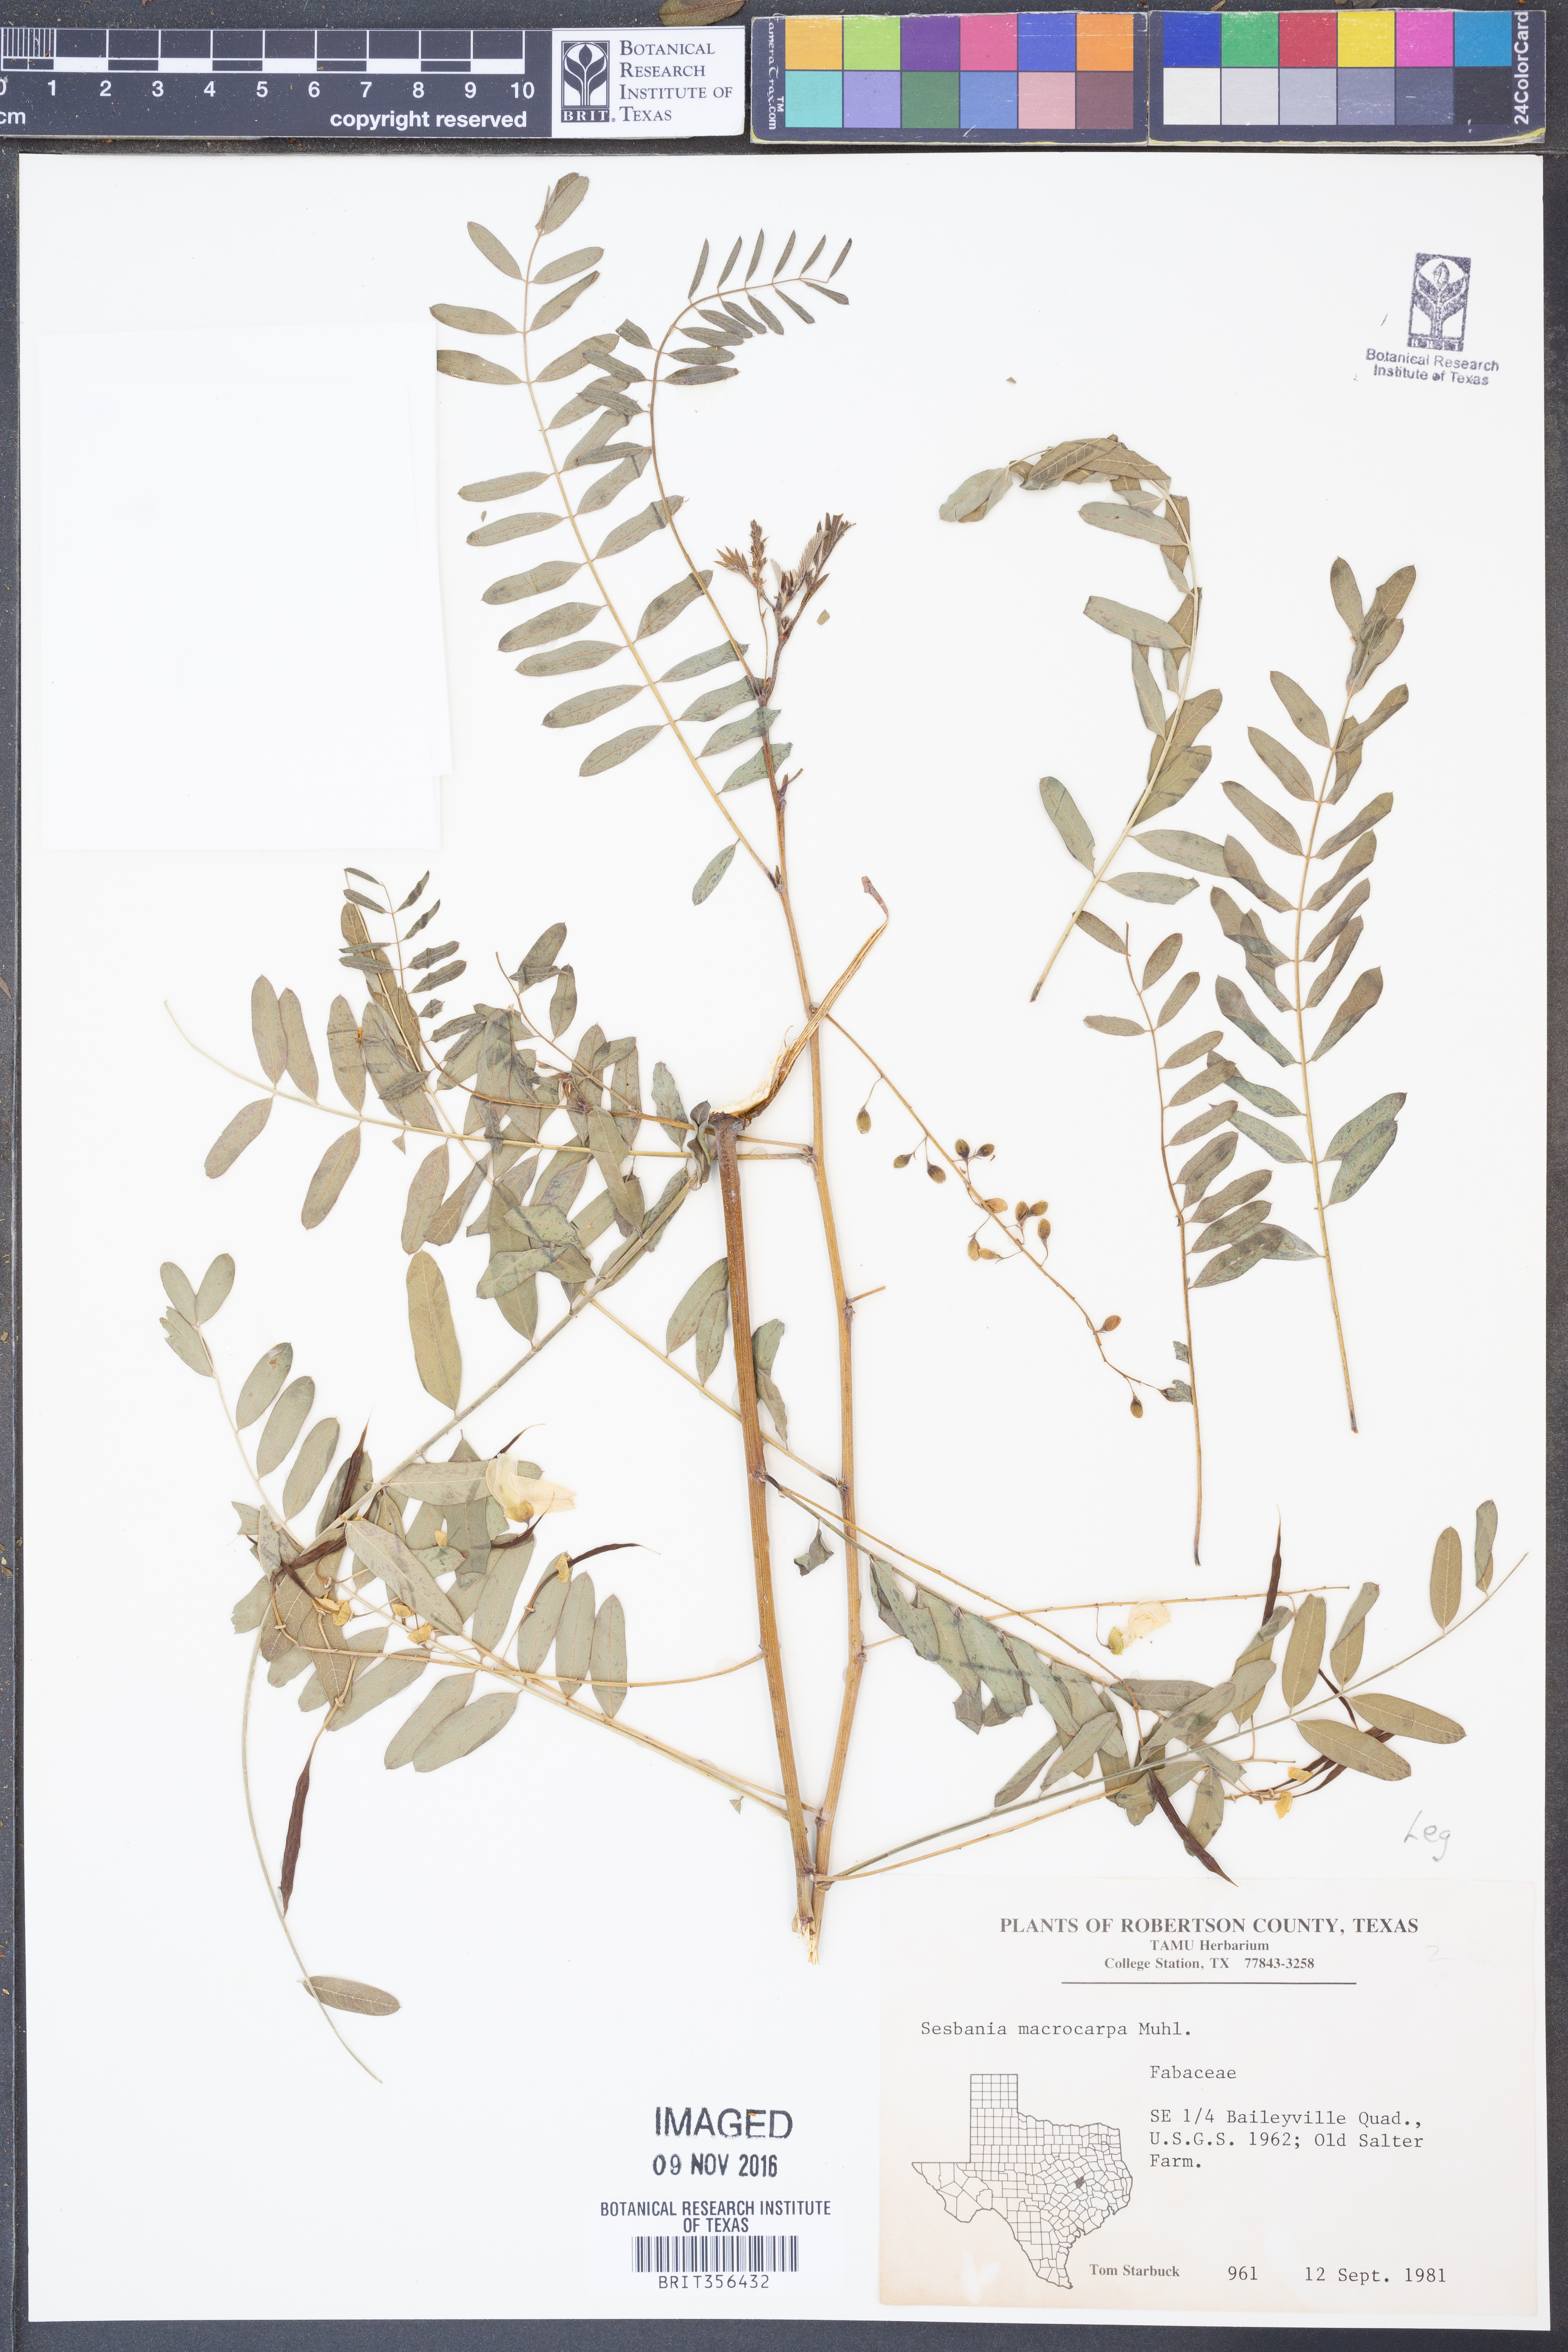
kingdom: Plantae
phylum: Tracheophyta
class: Magnoliopsida
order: Fabales
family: Fabaceae
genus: Sesbania
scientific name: Sesbania vesicaria
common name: Bagpod
